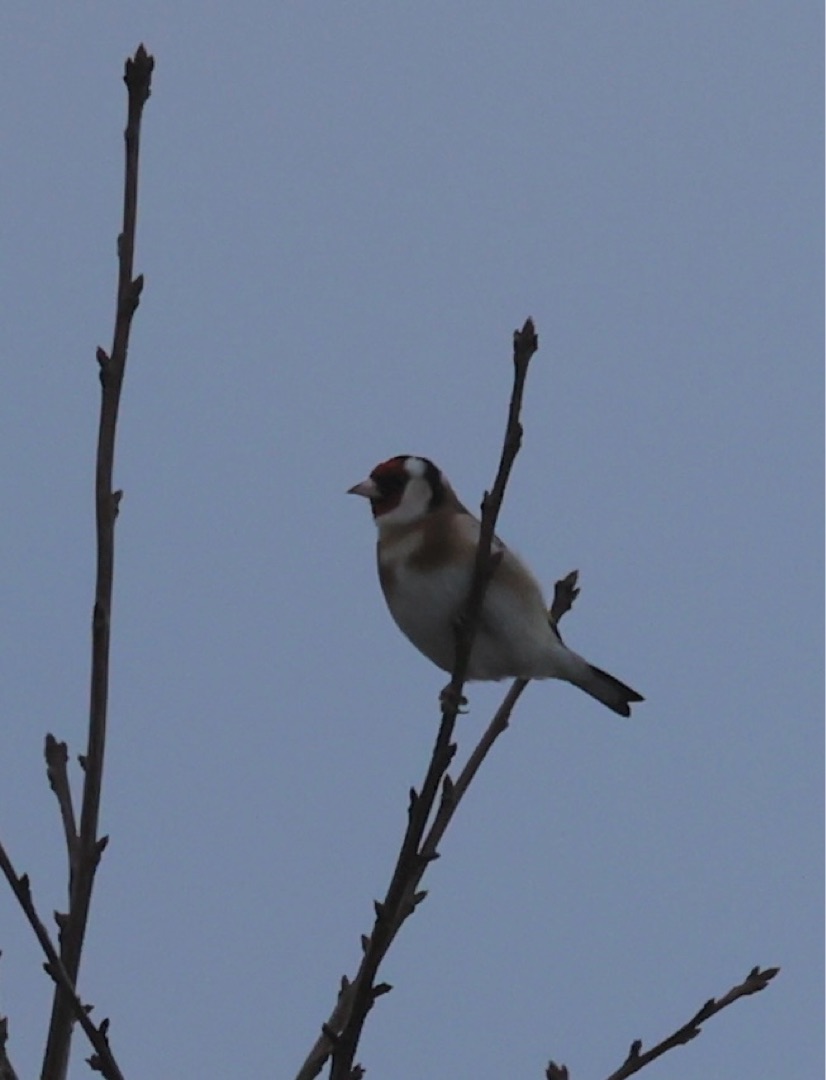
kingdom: Animalia
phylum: Chordata
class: Aves
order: Passeriformes
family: Fringillidae
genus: Carduelis
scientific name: Carduelis carduelis
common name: Stillits
